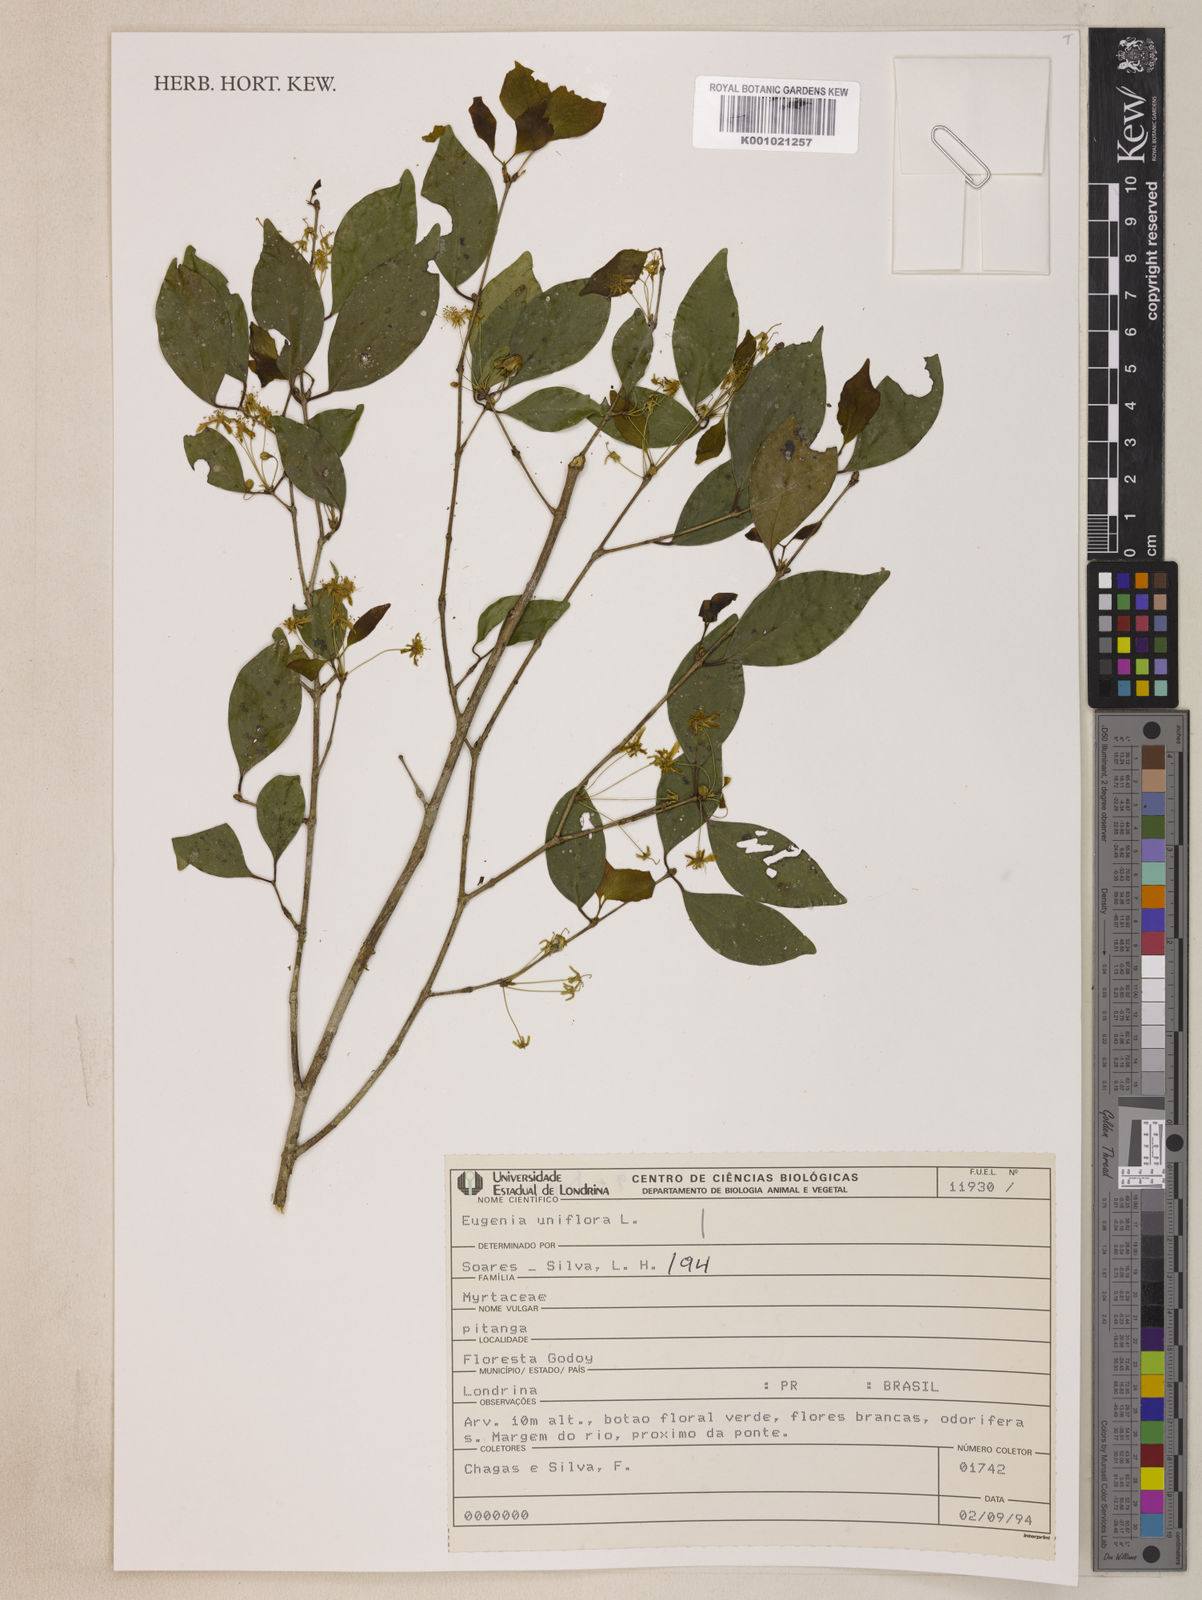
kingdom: Plantae
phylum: Tracheophyta
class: Magnoliopsida
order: Myrtales
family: Myrtaceae
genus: Eugenia
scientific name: Eugenia uniflora
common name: Surinam cherry
